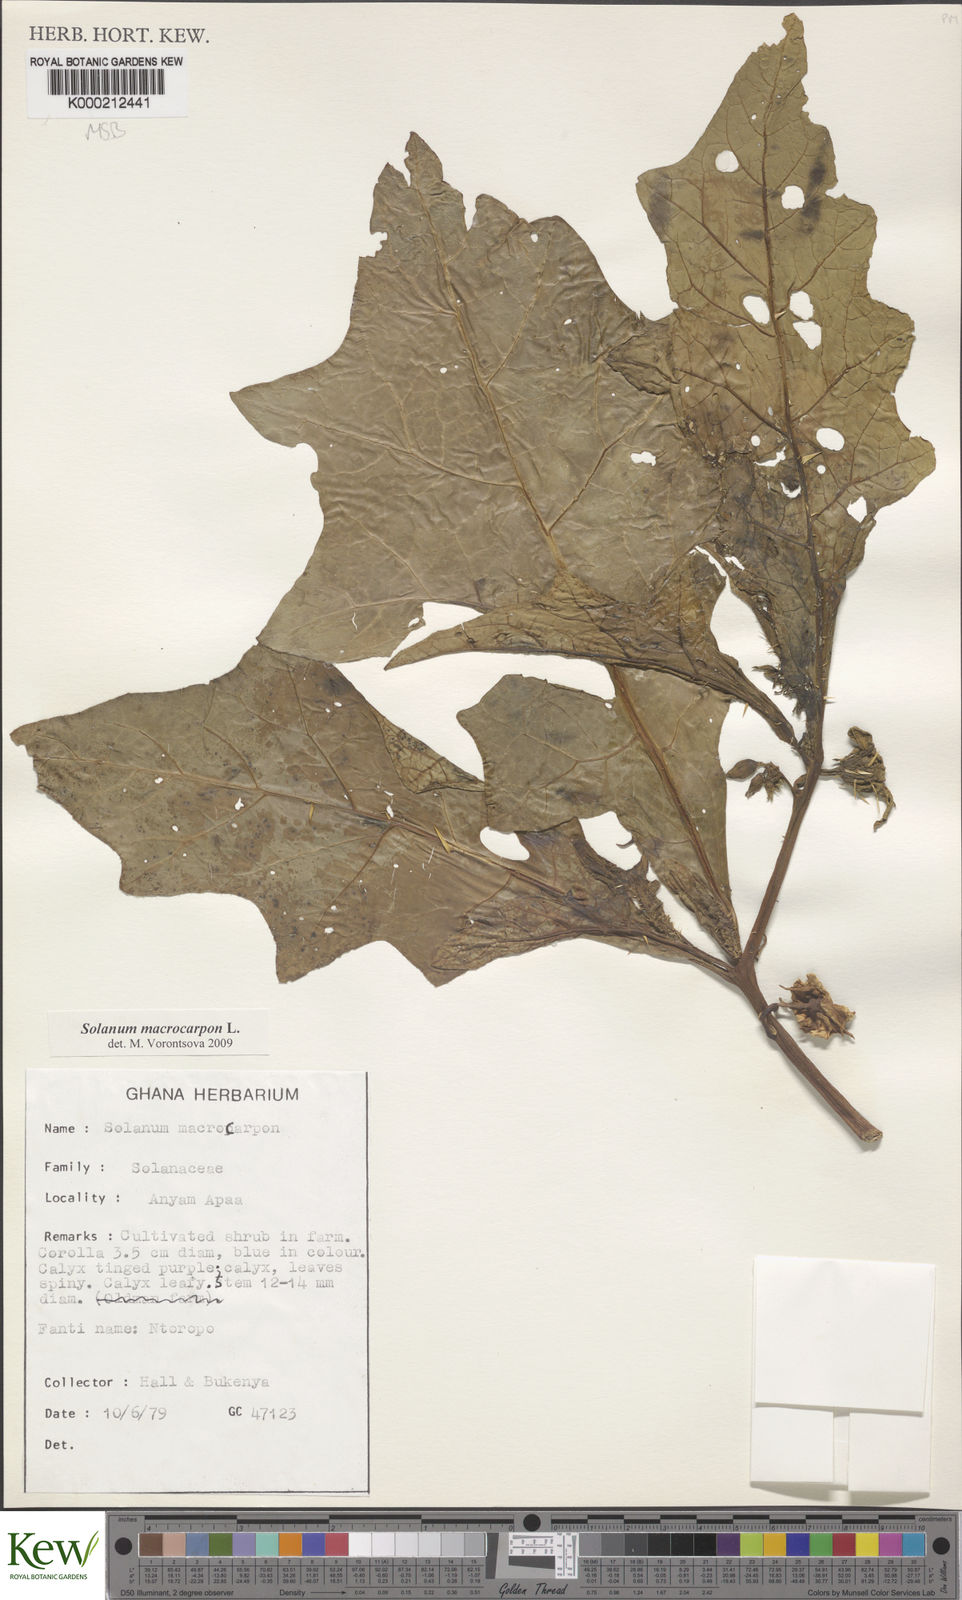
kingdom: Plantae
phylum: Tracheophyta
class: Magnoliopsida
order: Solanales
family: Solanaceae
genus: Solanum
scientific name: Solanum macrocarpon
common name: African eggplant
